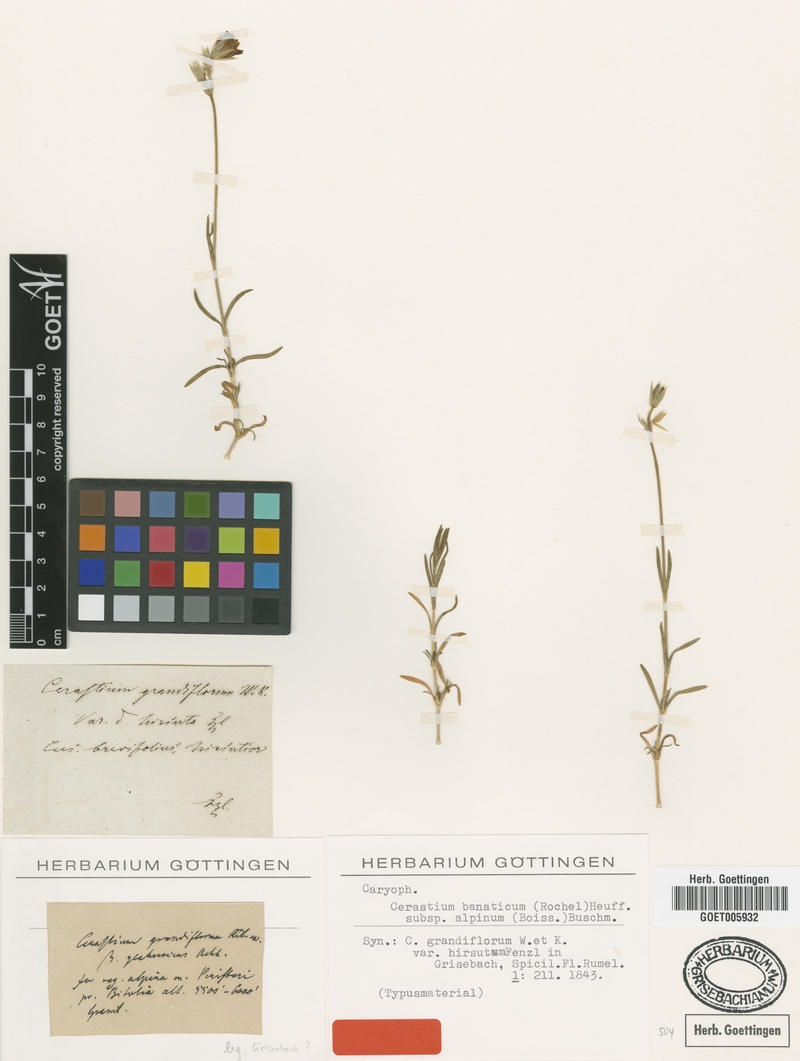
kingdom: Plantae
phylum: Tracheophyta
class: Magnoliopsida
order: Caryophyllales
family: Caryophyllaceae
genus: Cerastium
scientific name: Cerastium banaticum
